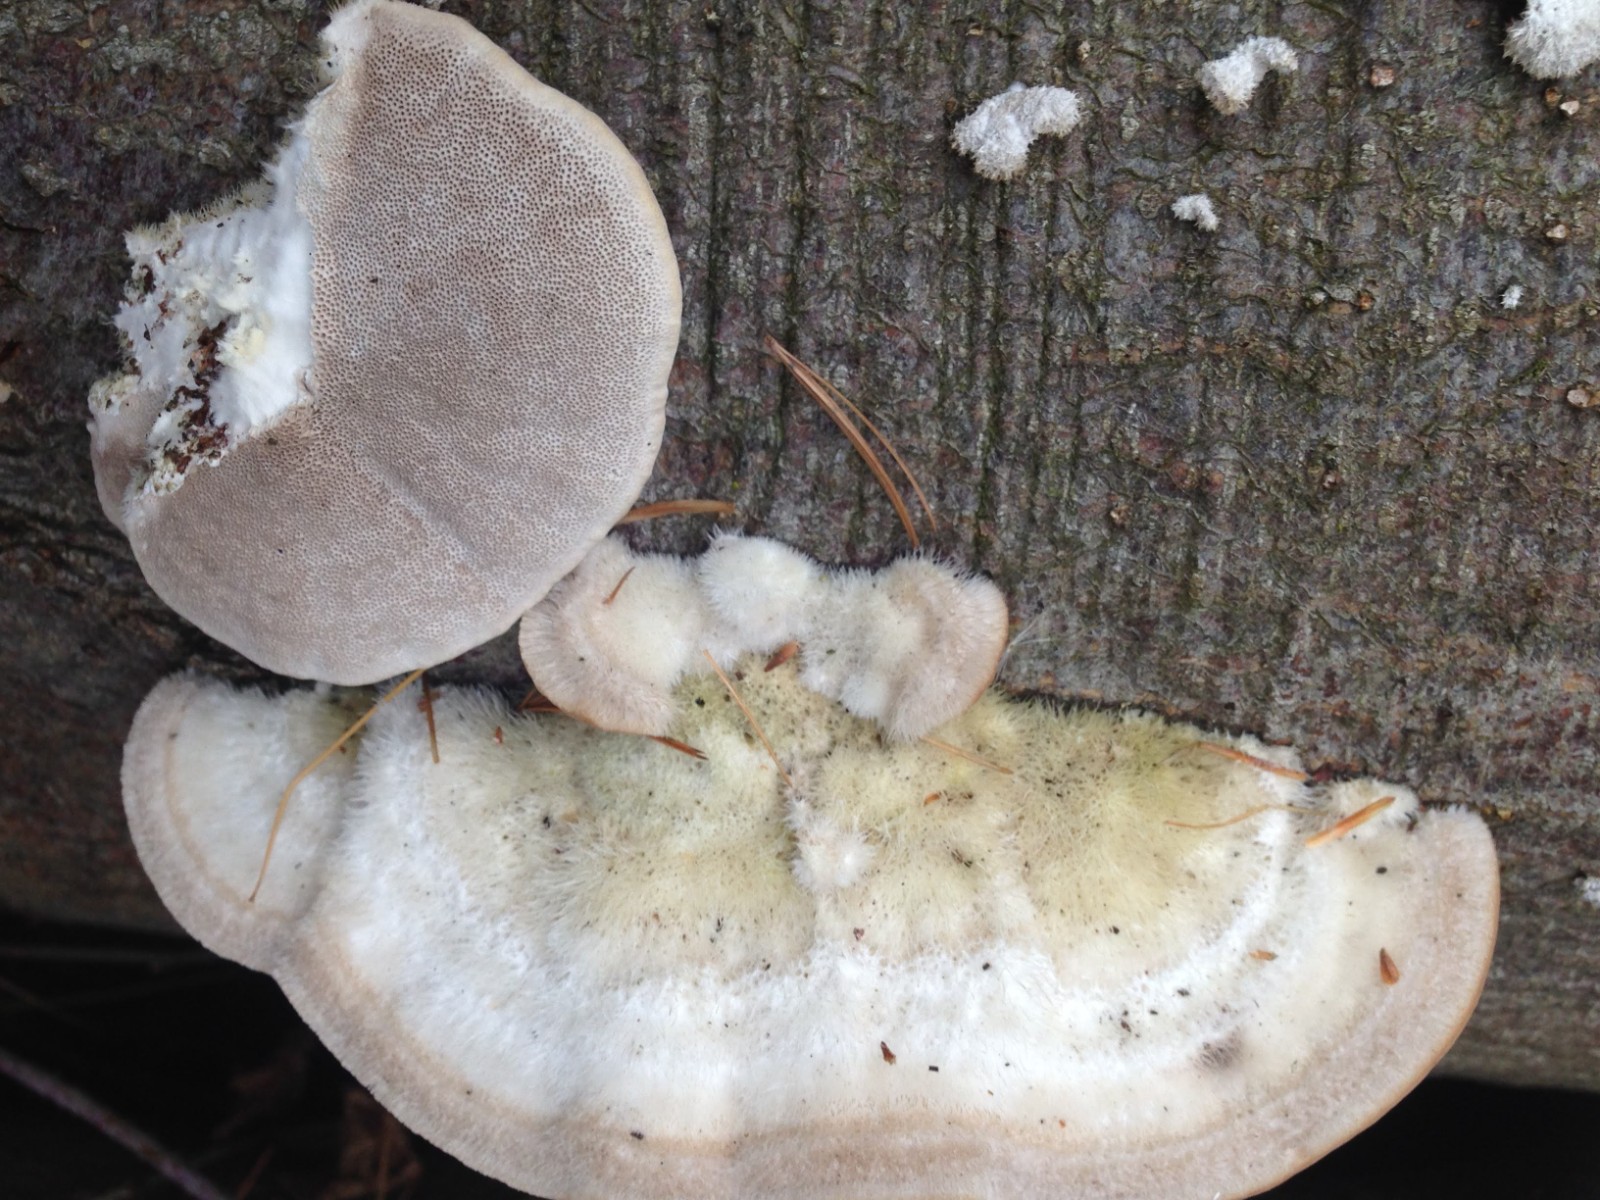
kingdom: Fungi
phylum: Basidiomycota
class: Agaricomycetes
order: Polyporales
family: Polyporaceae
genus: Trametes
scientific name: Trametes hirsuta
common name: håret læderporesvamp
